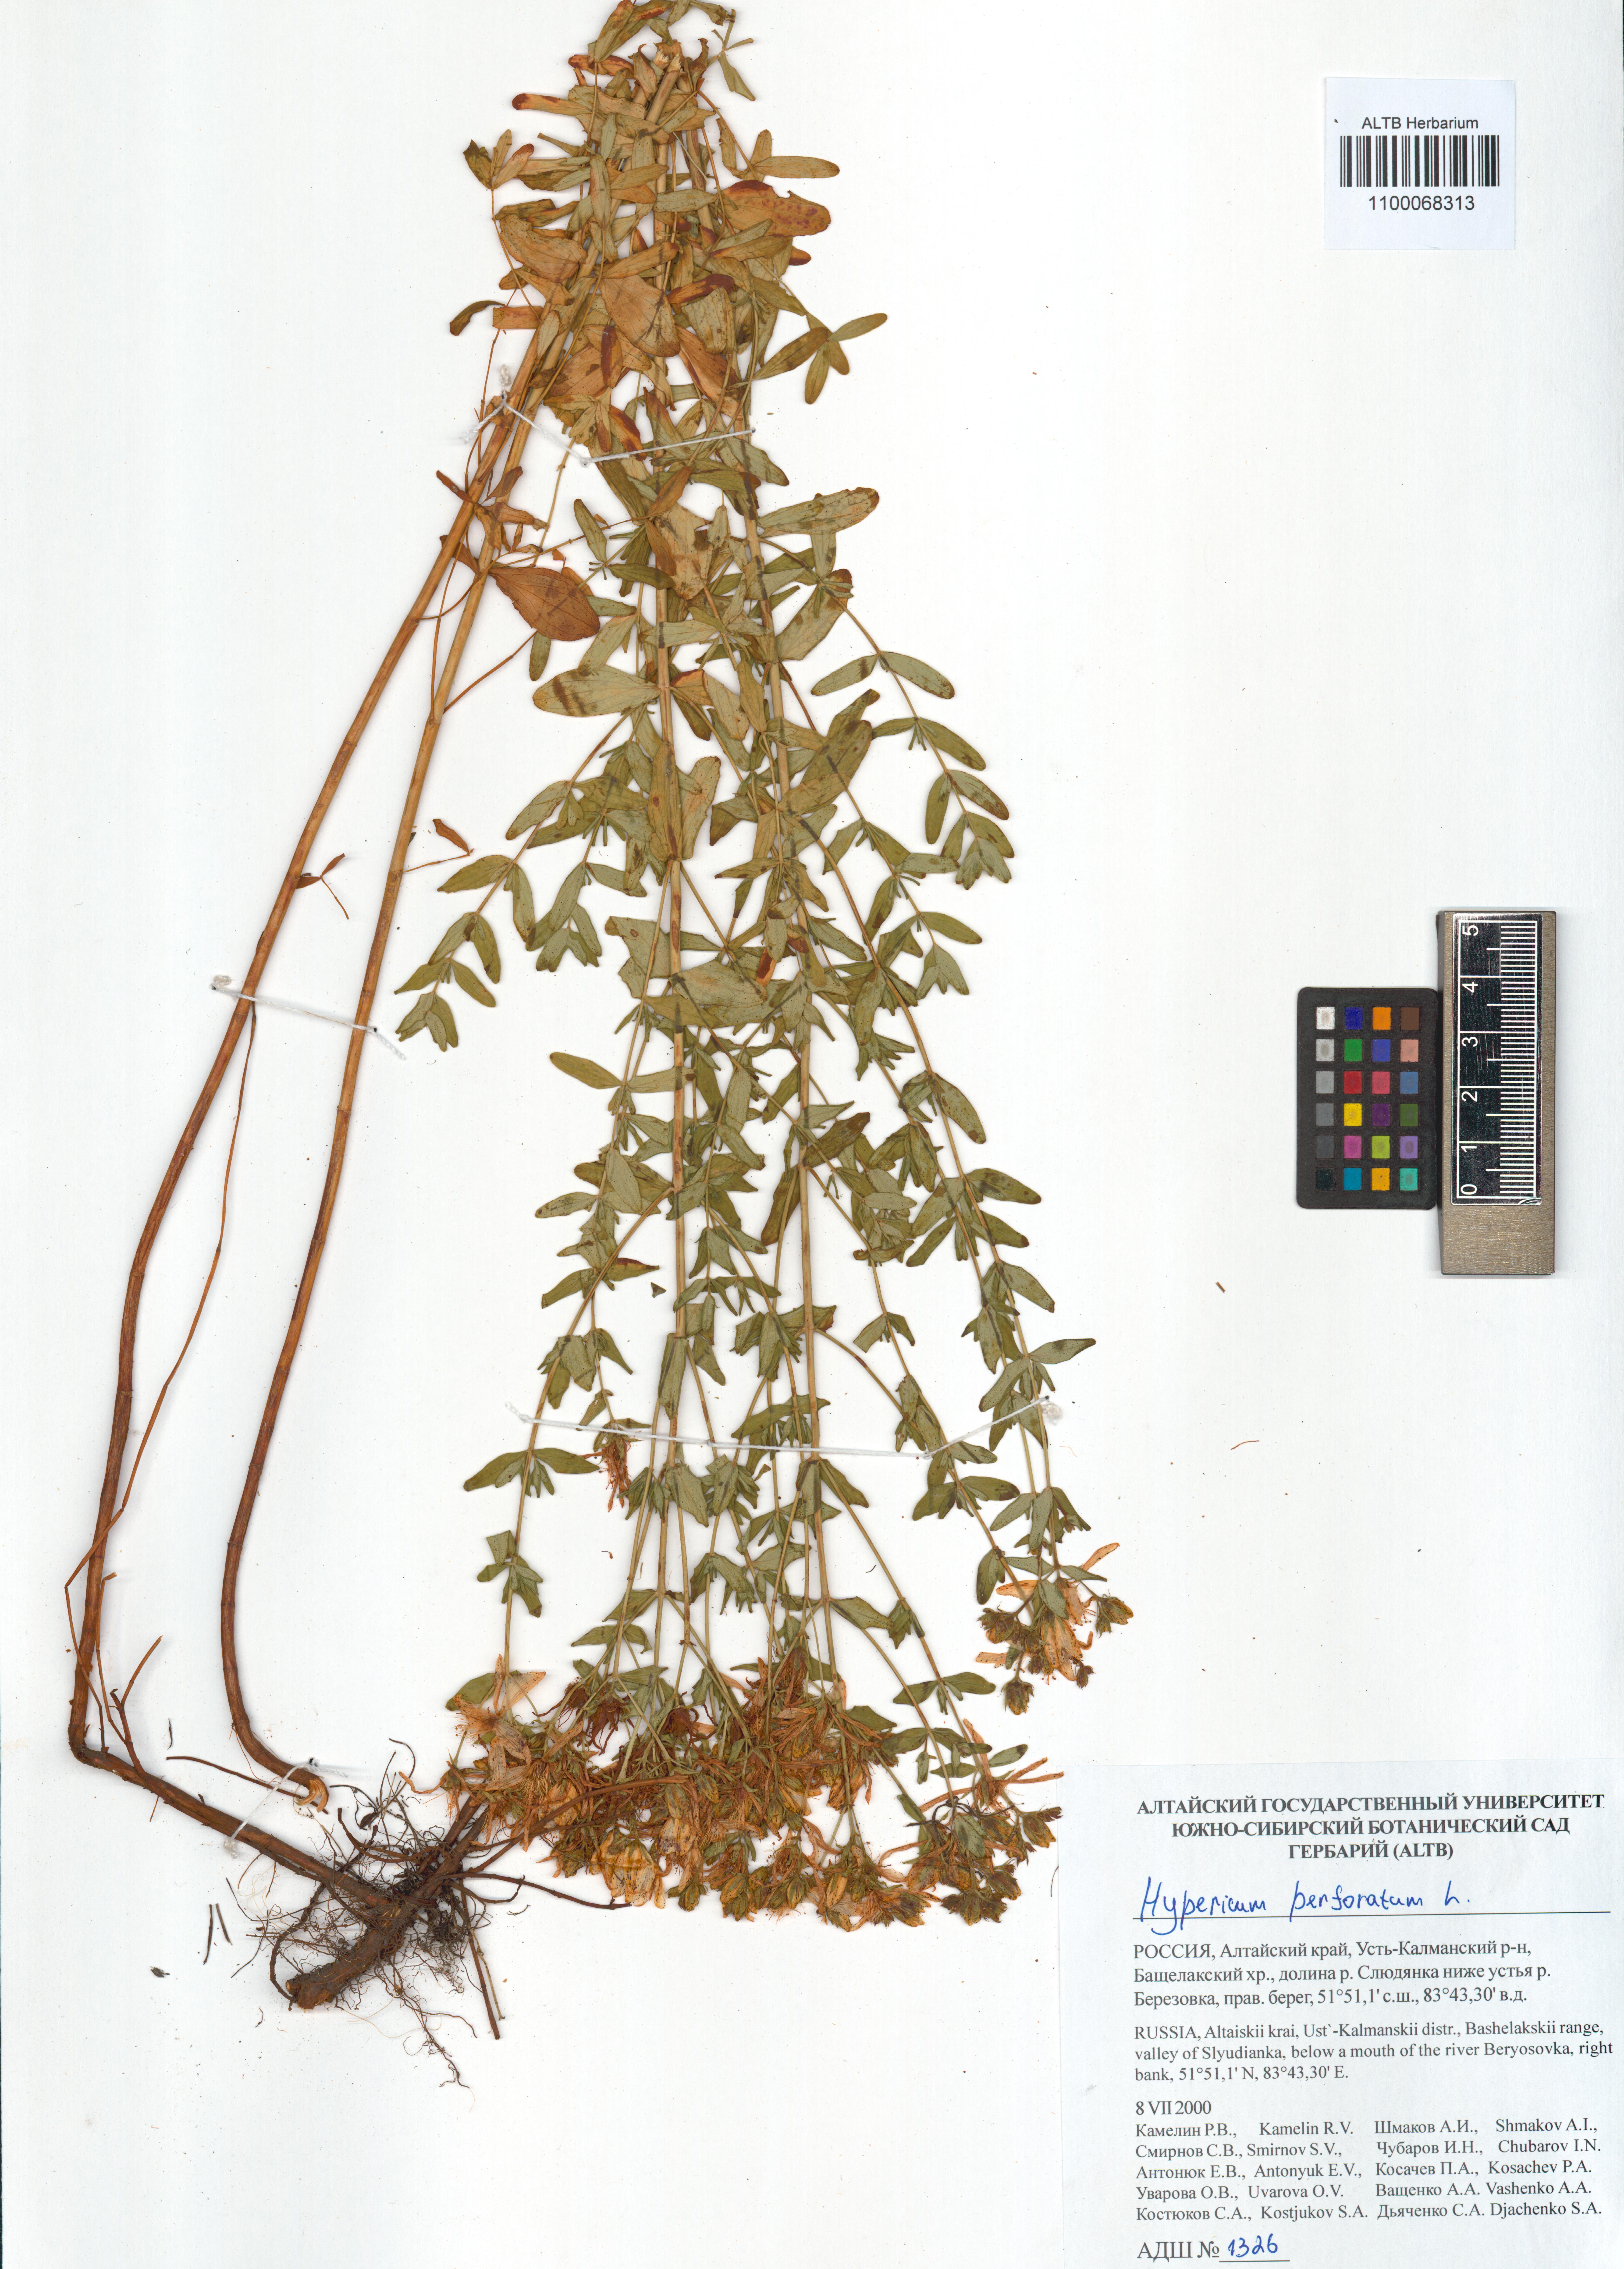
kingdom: Plantae
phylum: Tracheophyta
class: Magnoliopsida
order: Malpighiales
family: Hypericaceae
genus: Hypericum
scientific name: Hypericum perforatum
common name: Common st. johnswort
